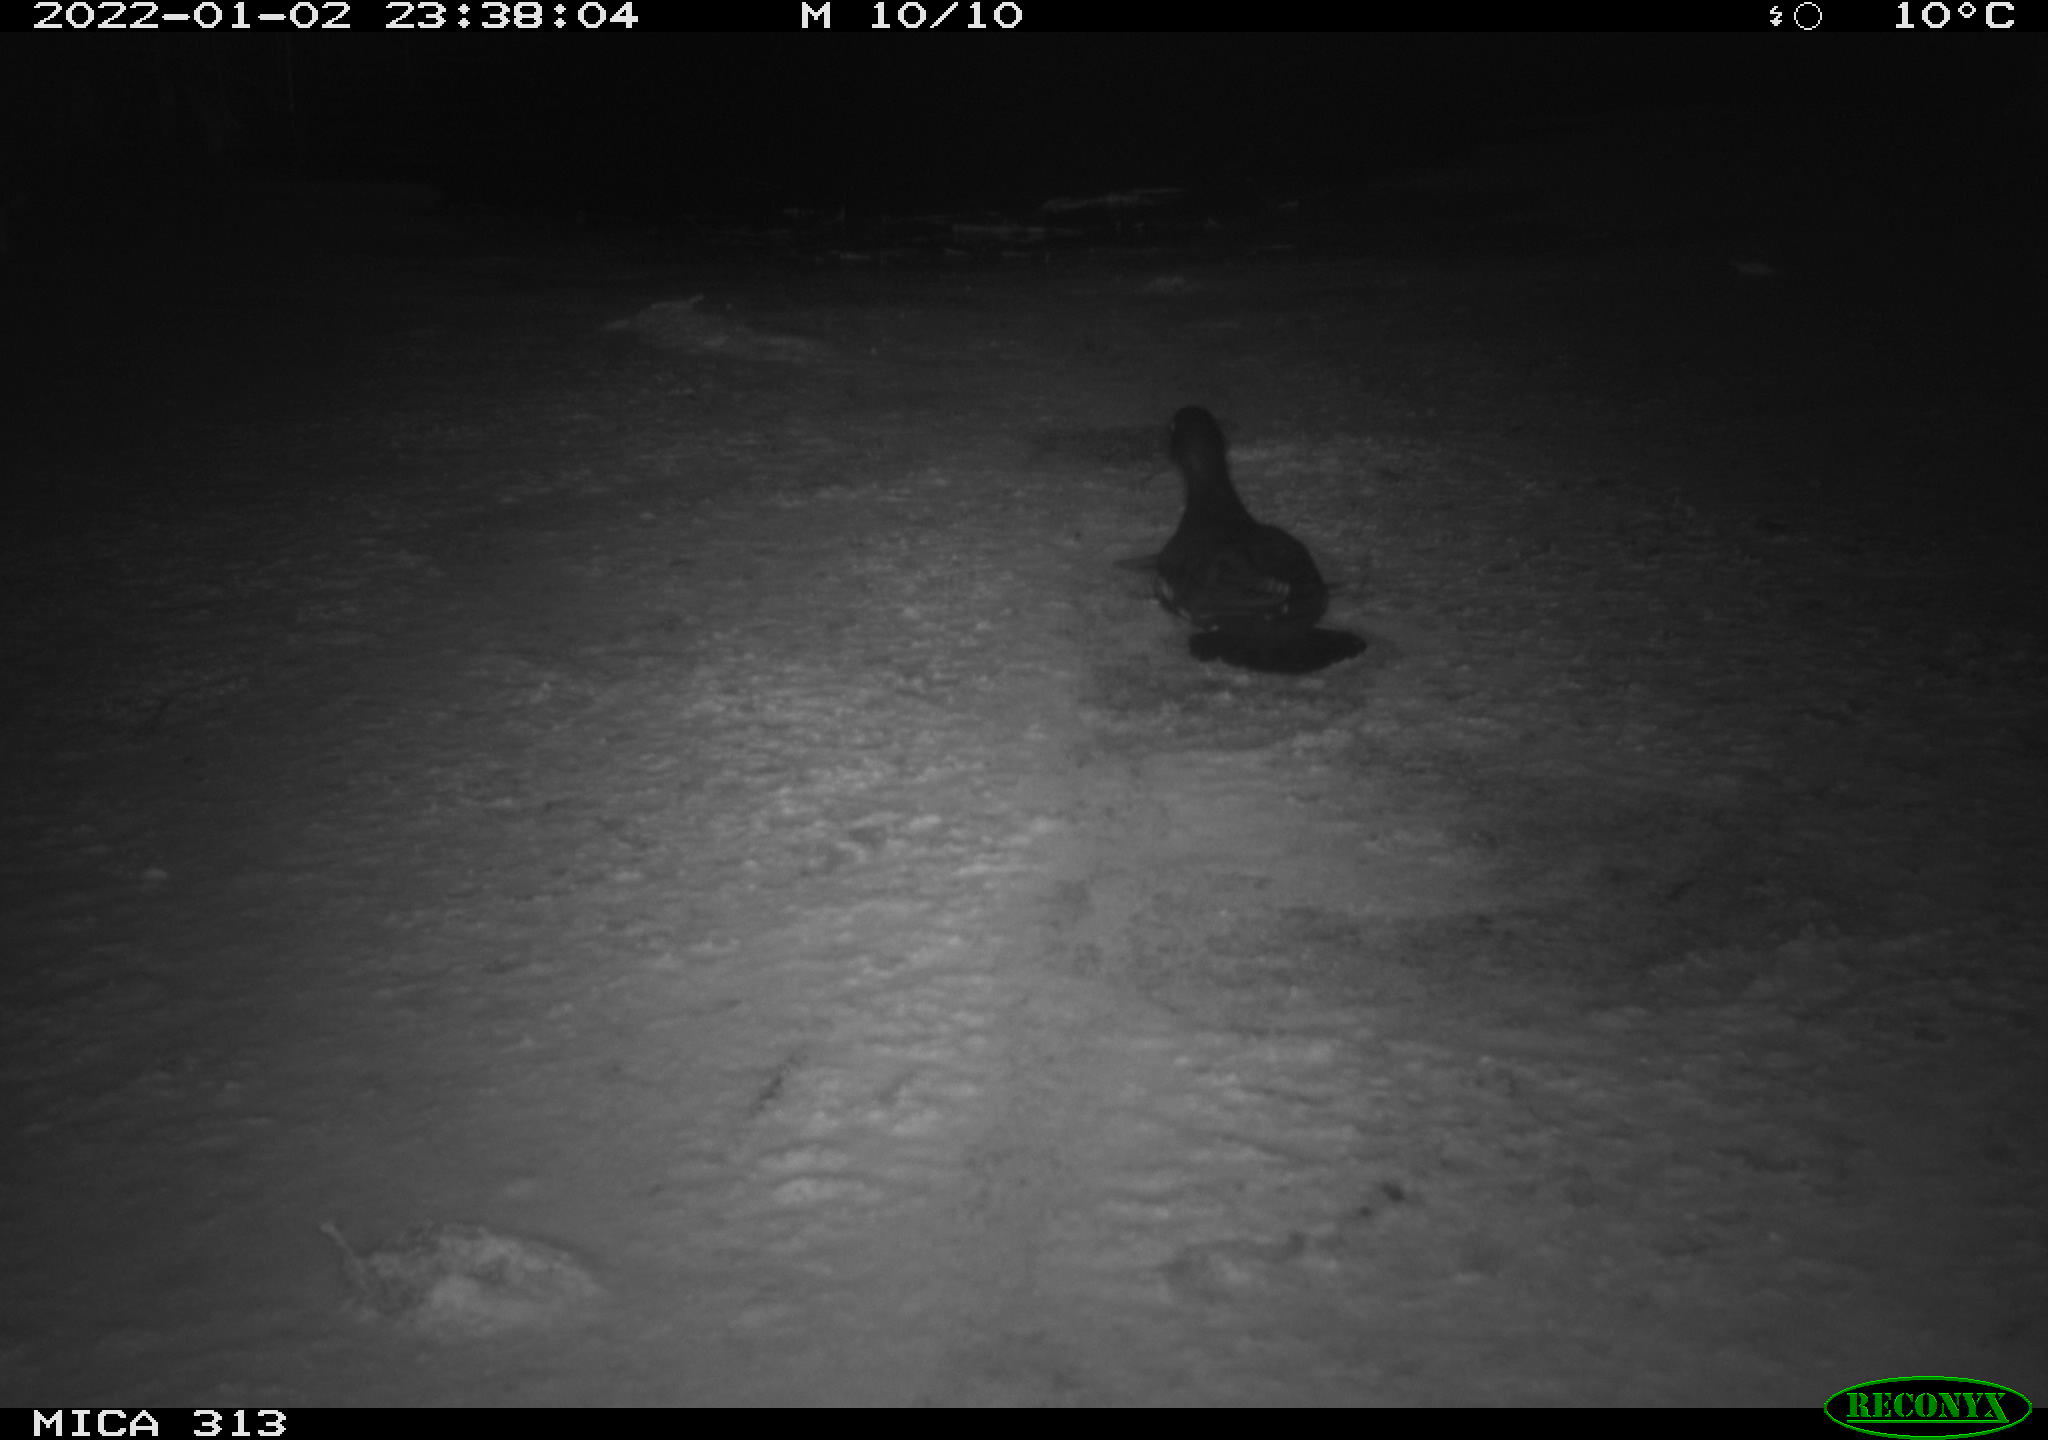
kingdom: Animalia
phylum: Chordata
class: Aves
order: Gruiformes
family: Rallidae
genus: Fulica
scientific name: Fulica atra
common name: Eurasian coot
